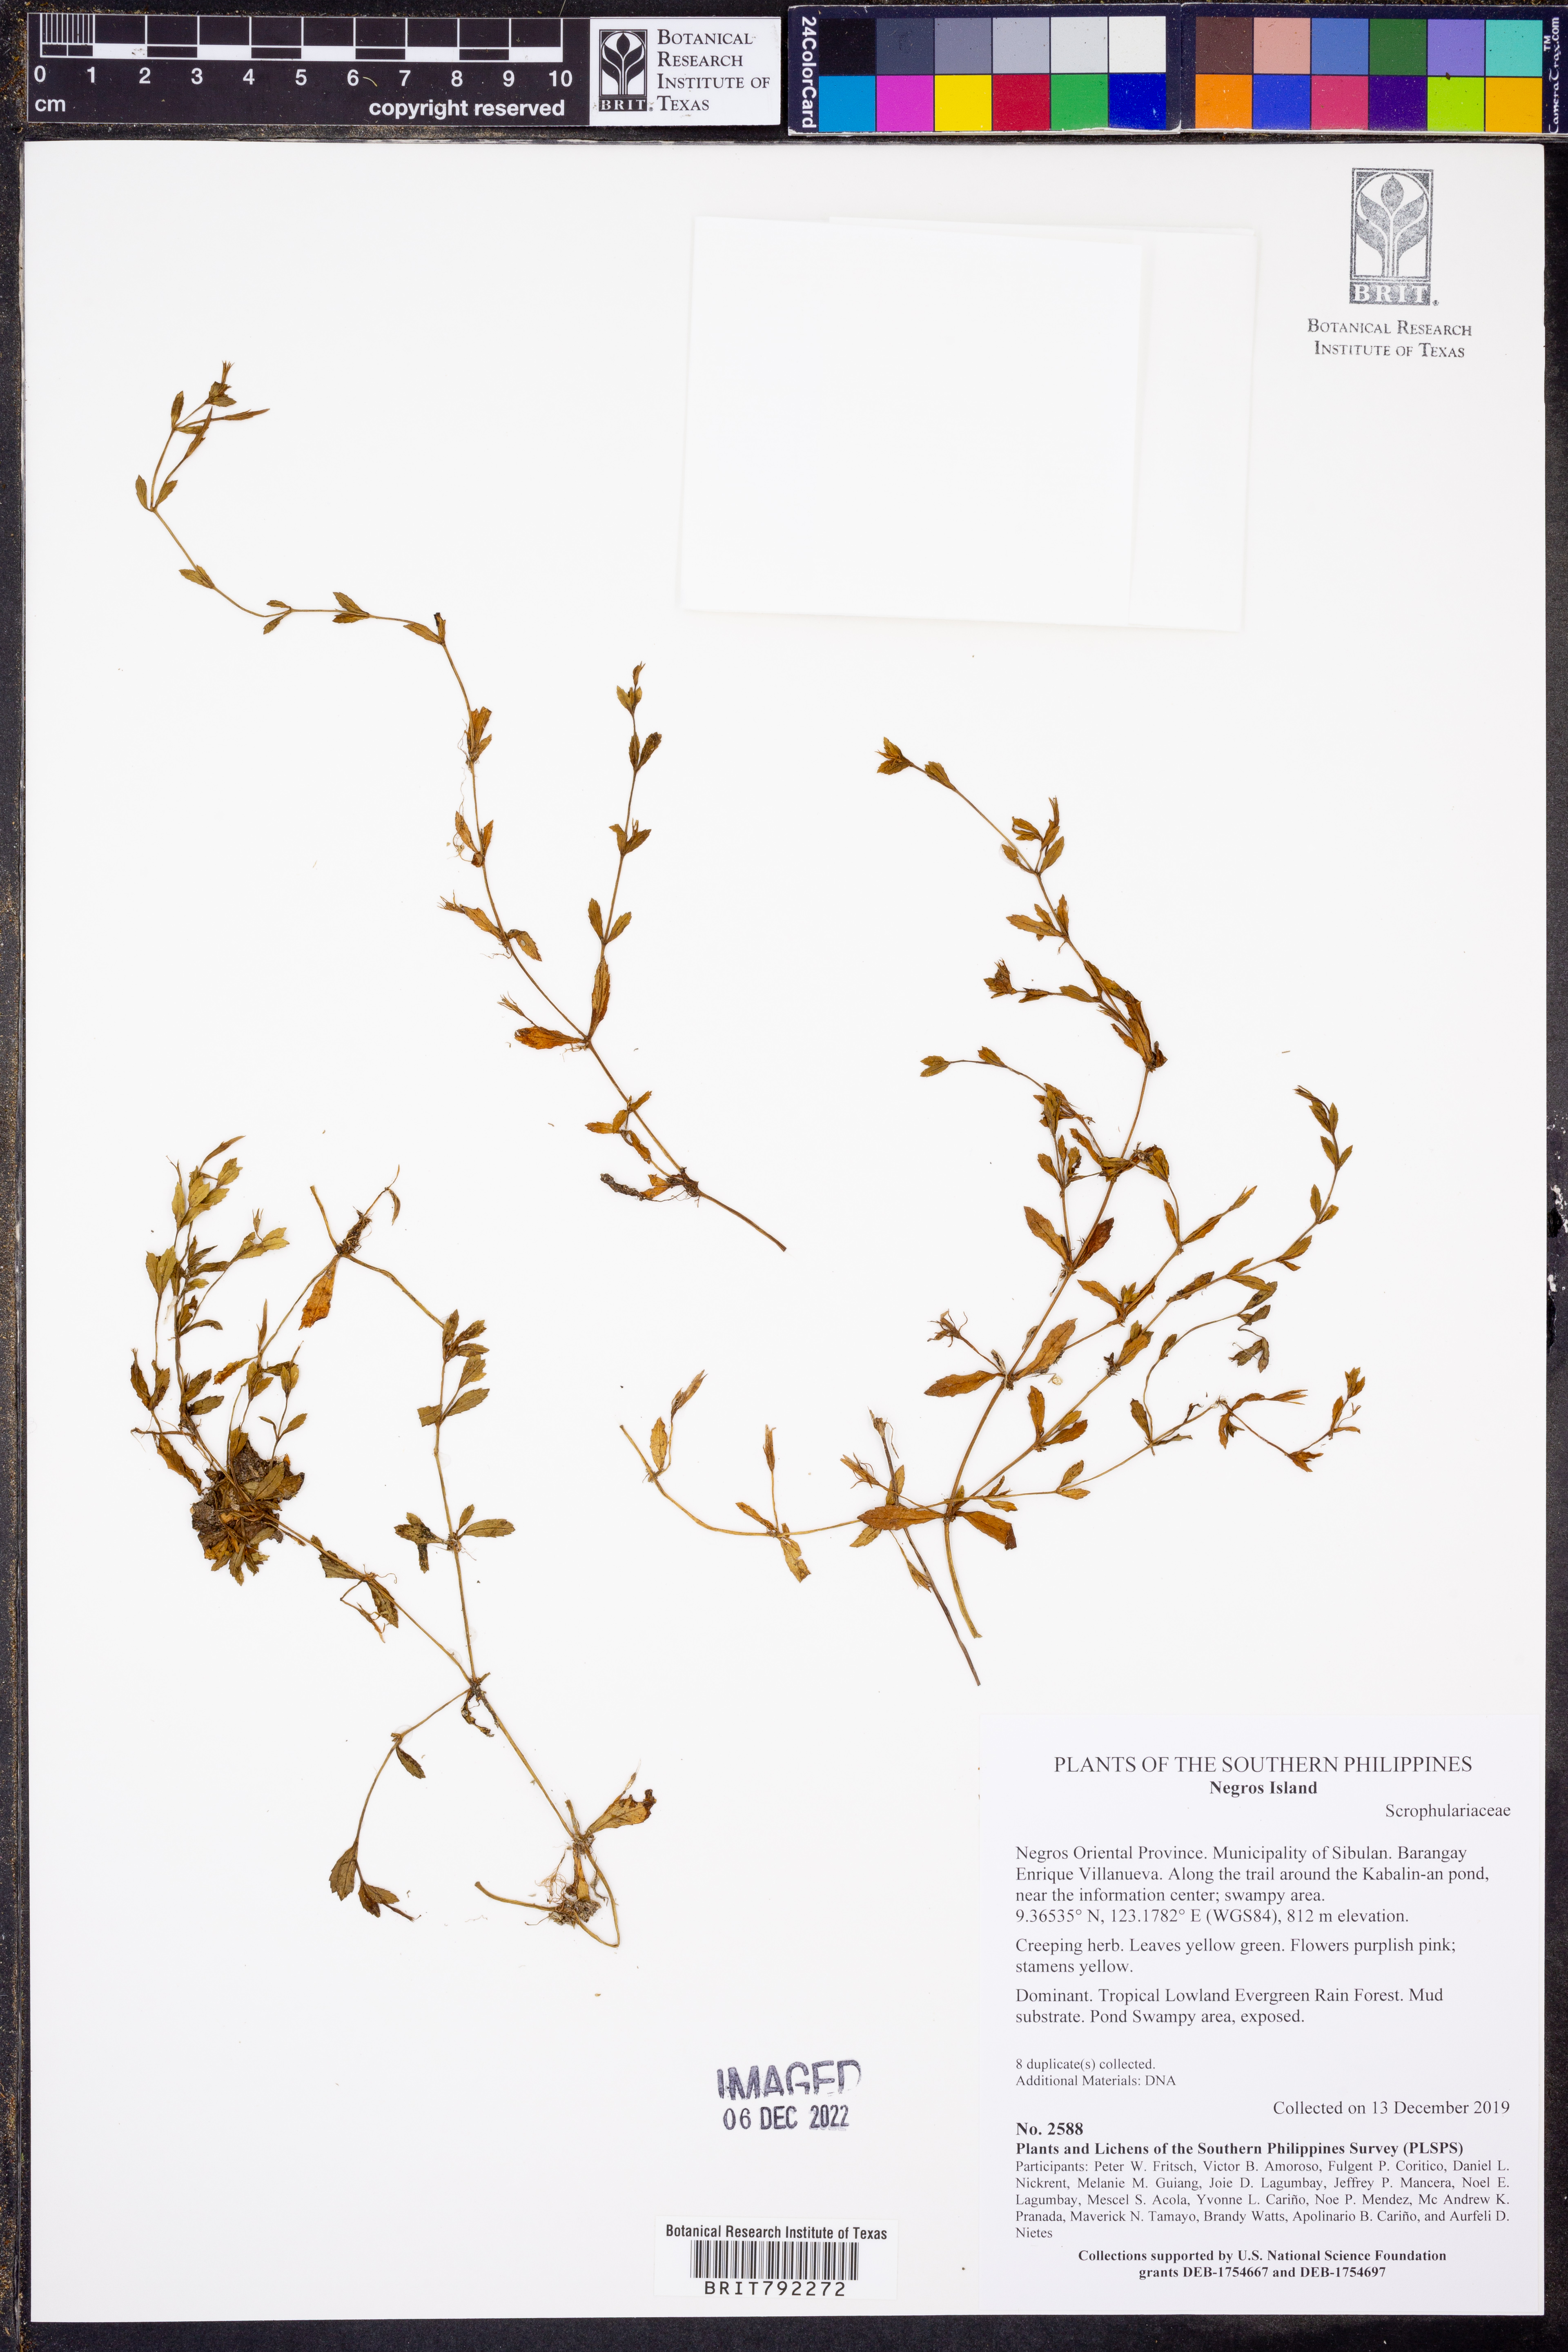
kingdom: Plantae
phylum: Tracheophyta
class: Magnoliopsida
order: Lamiales
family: Linderniaceae
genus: Lindernia
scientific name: Lindernia
